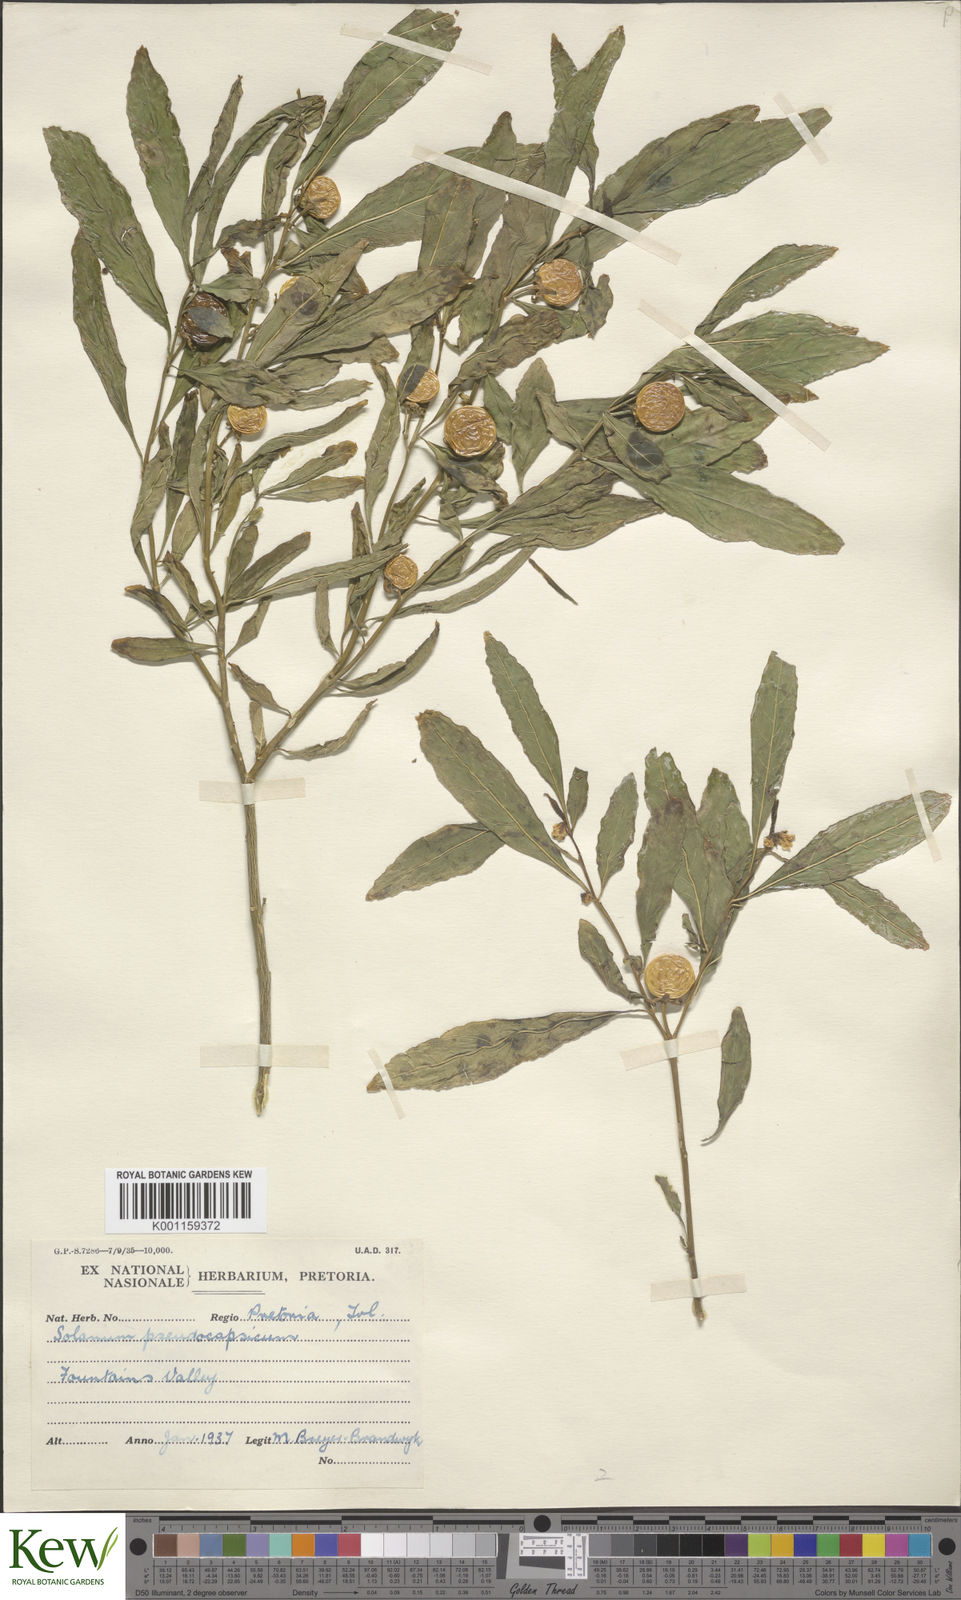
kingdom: Plantae
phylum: Tracheophyta
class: Magnoliopsida
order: Solanales
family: Solanaceae
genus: Solanum
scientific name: Solanum pseudocapsicum
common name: Jerusalem cherry
